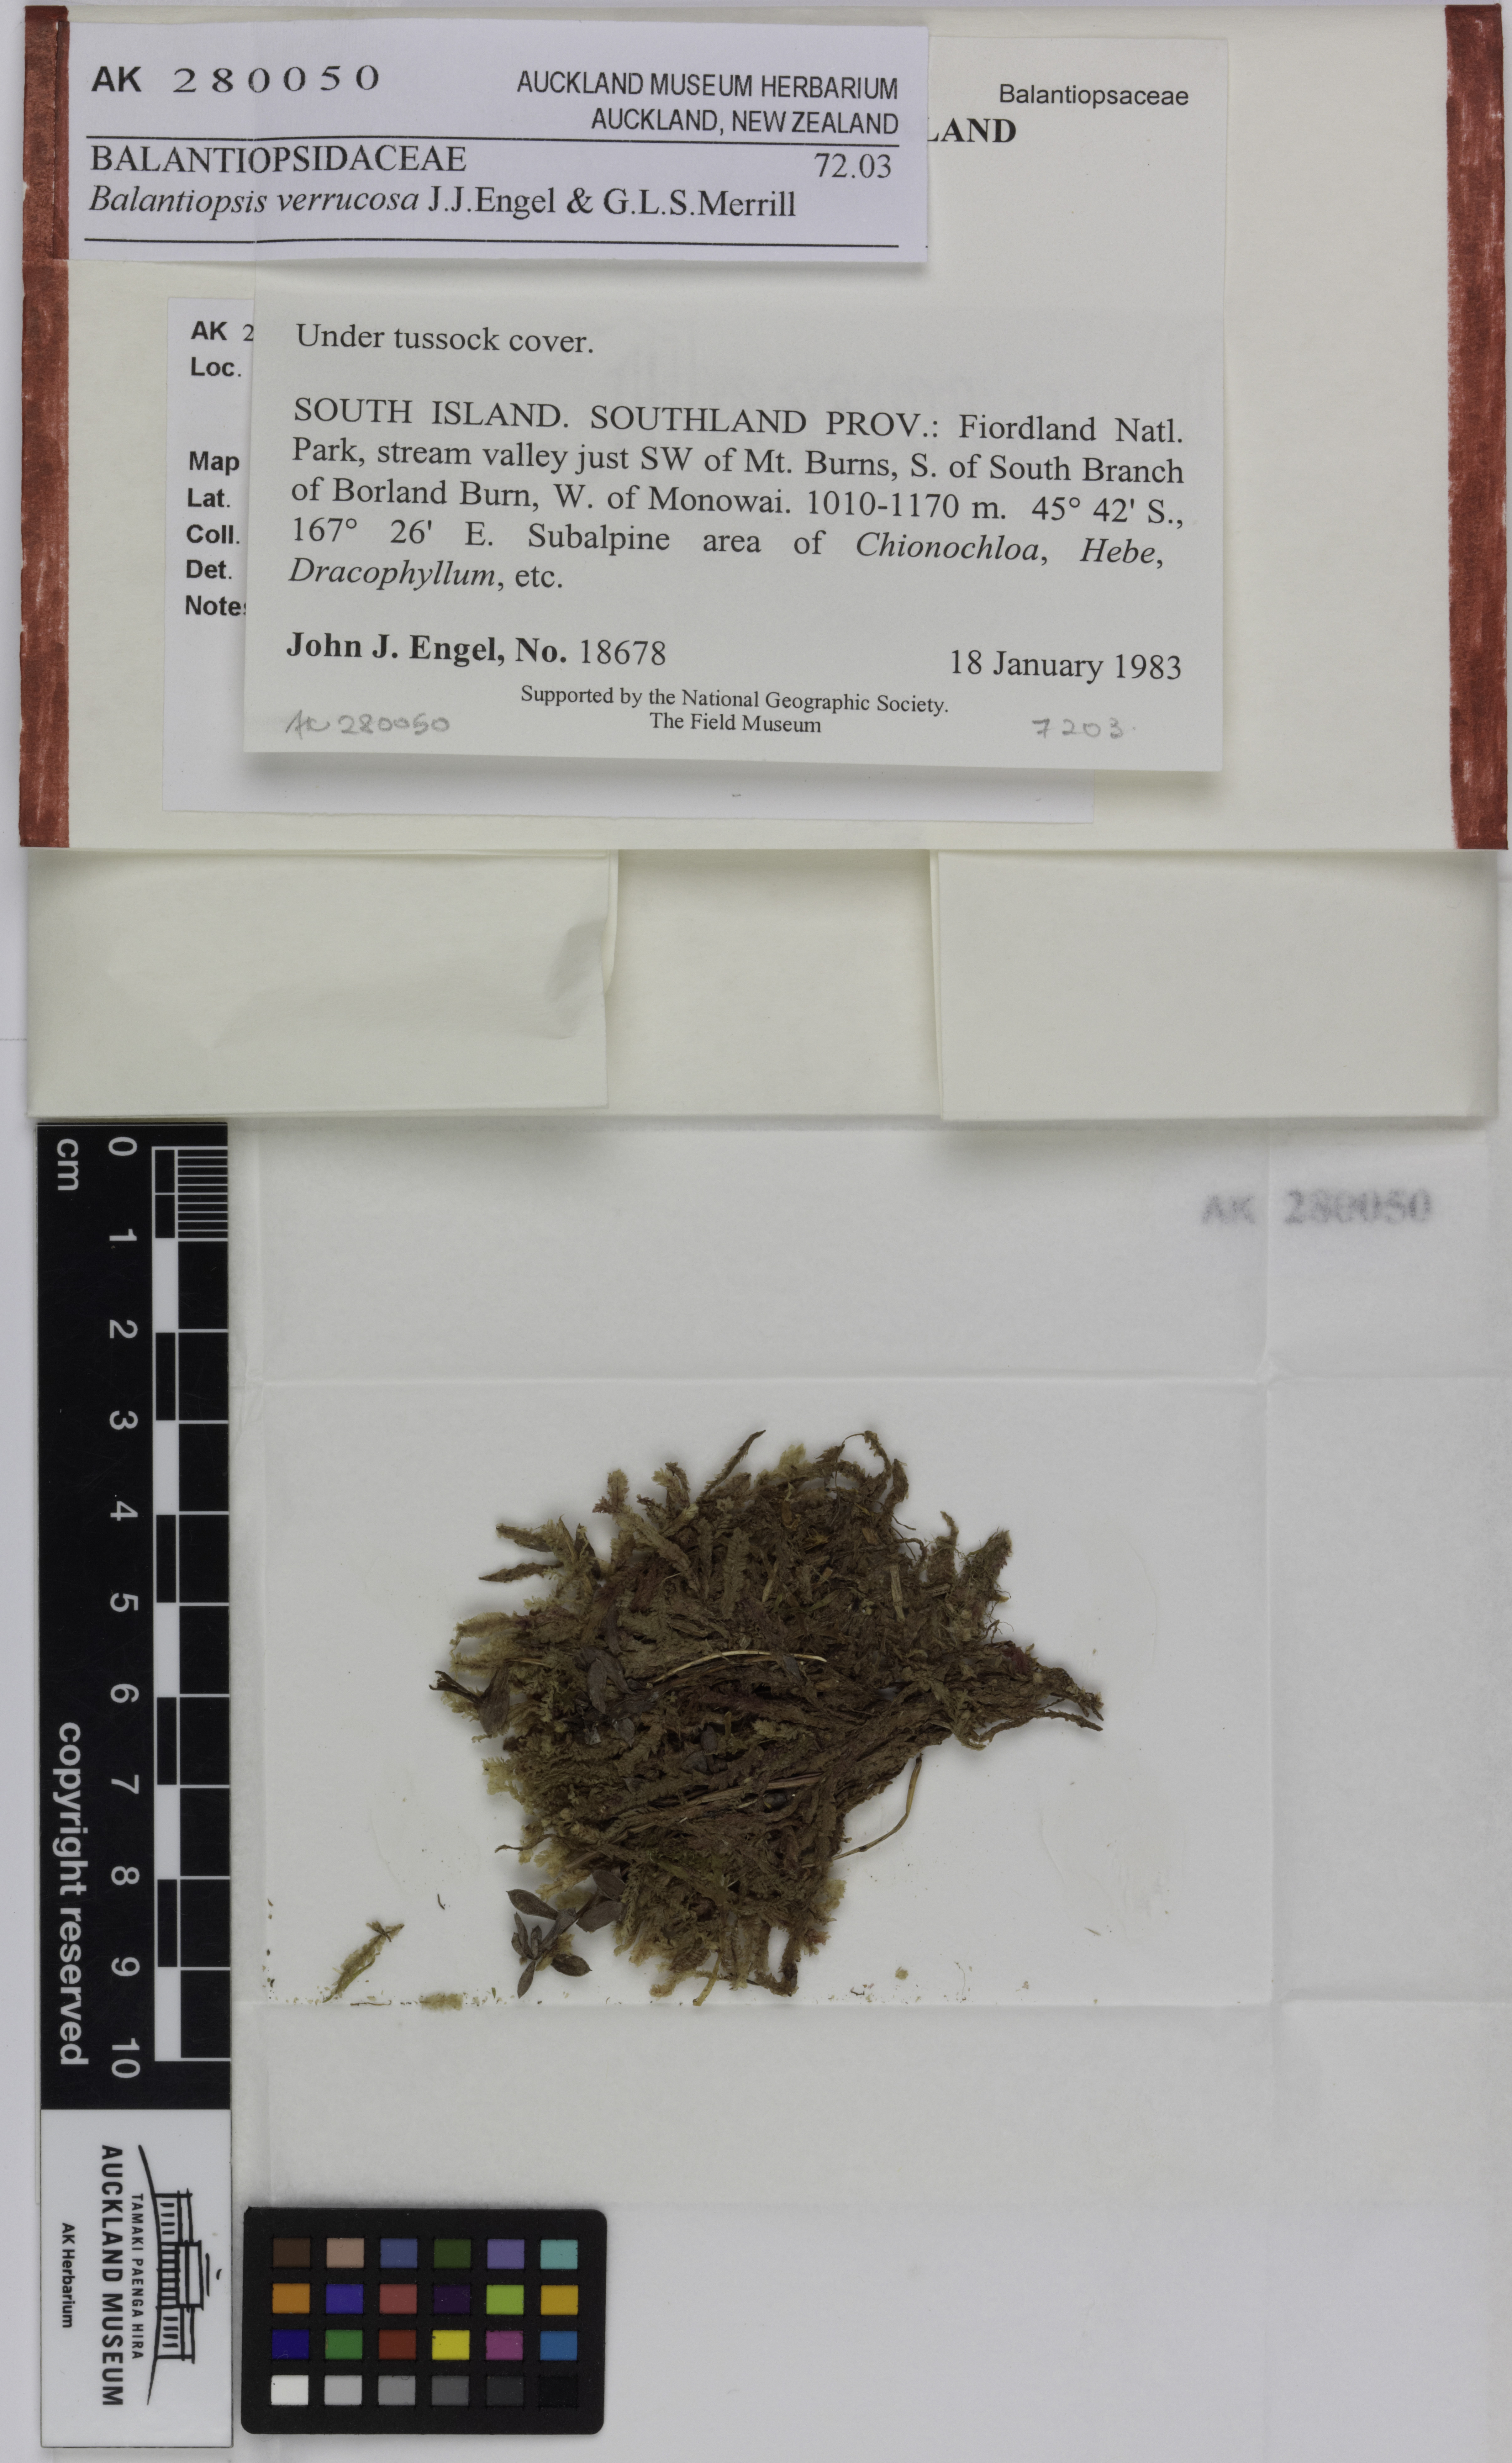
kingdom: Plantae
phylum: Marchantiophyta
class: Jungermanniopsida
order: Jungermanniales
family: Balantiopsidaceae
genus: Balantiopsis
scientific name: Balantiopsis verrucosa
